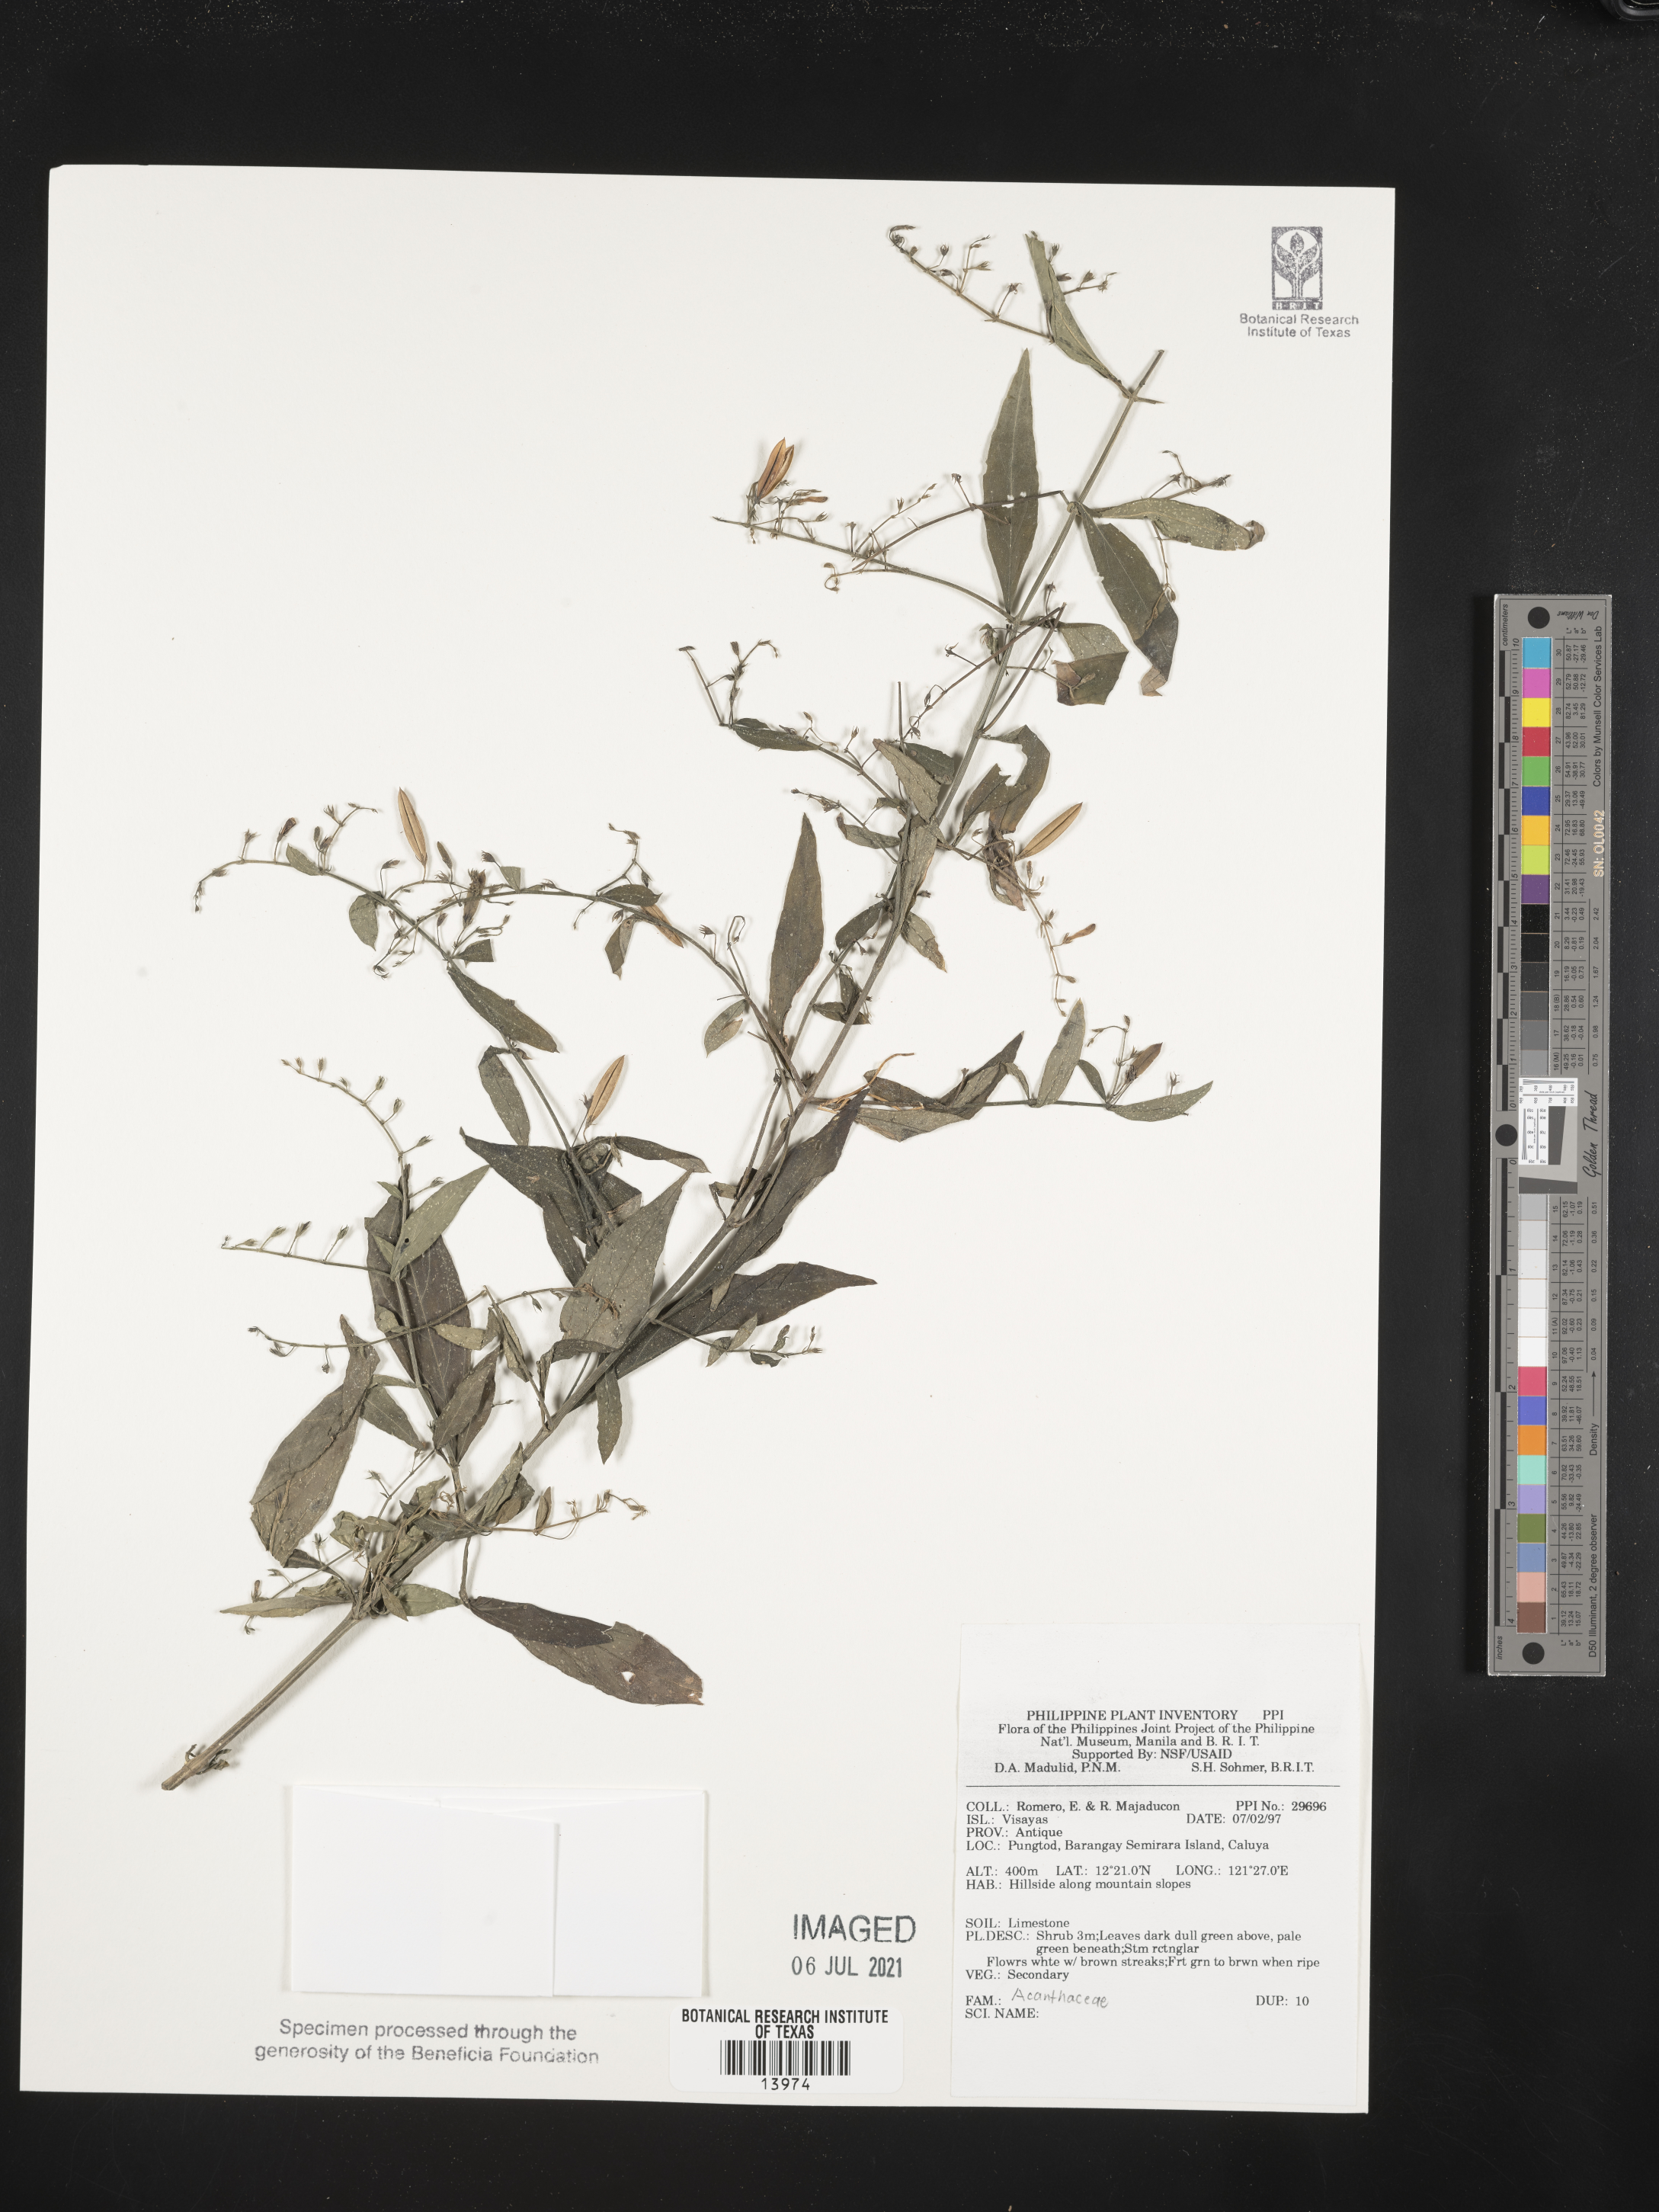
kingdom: Plantae
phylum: Tracheophyta
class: Magnoliopsida
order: Lamiales
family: Acanthaceae
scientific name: Acanthaceae
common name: Acanthaceae
